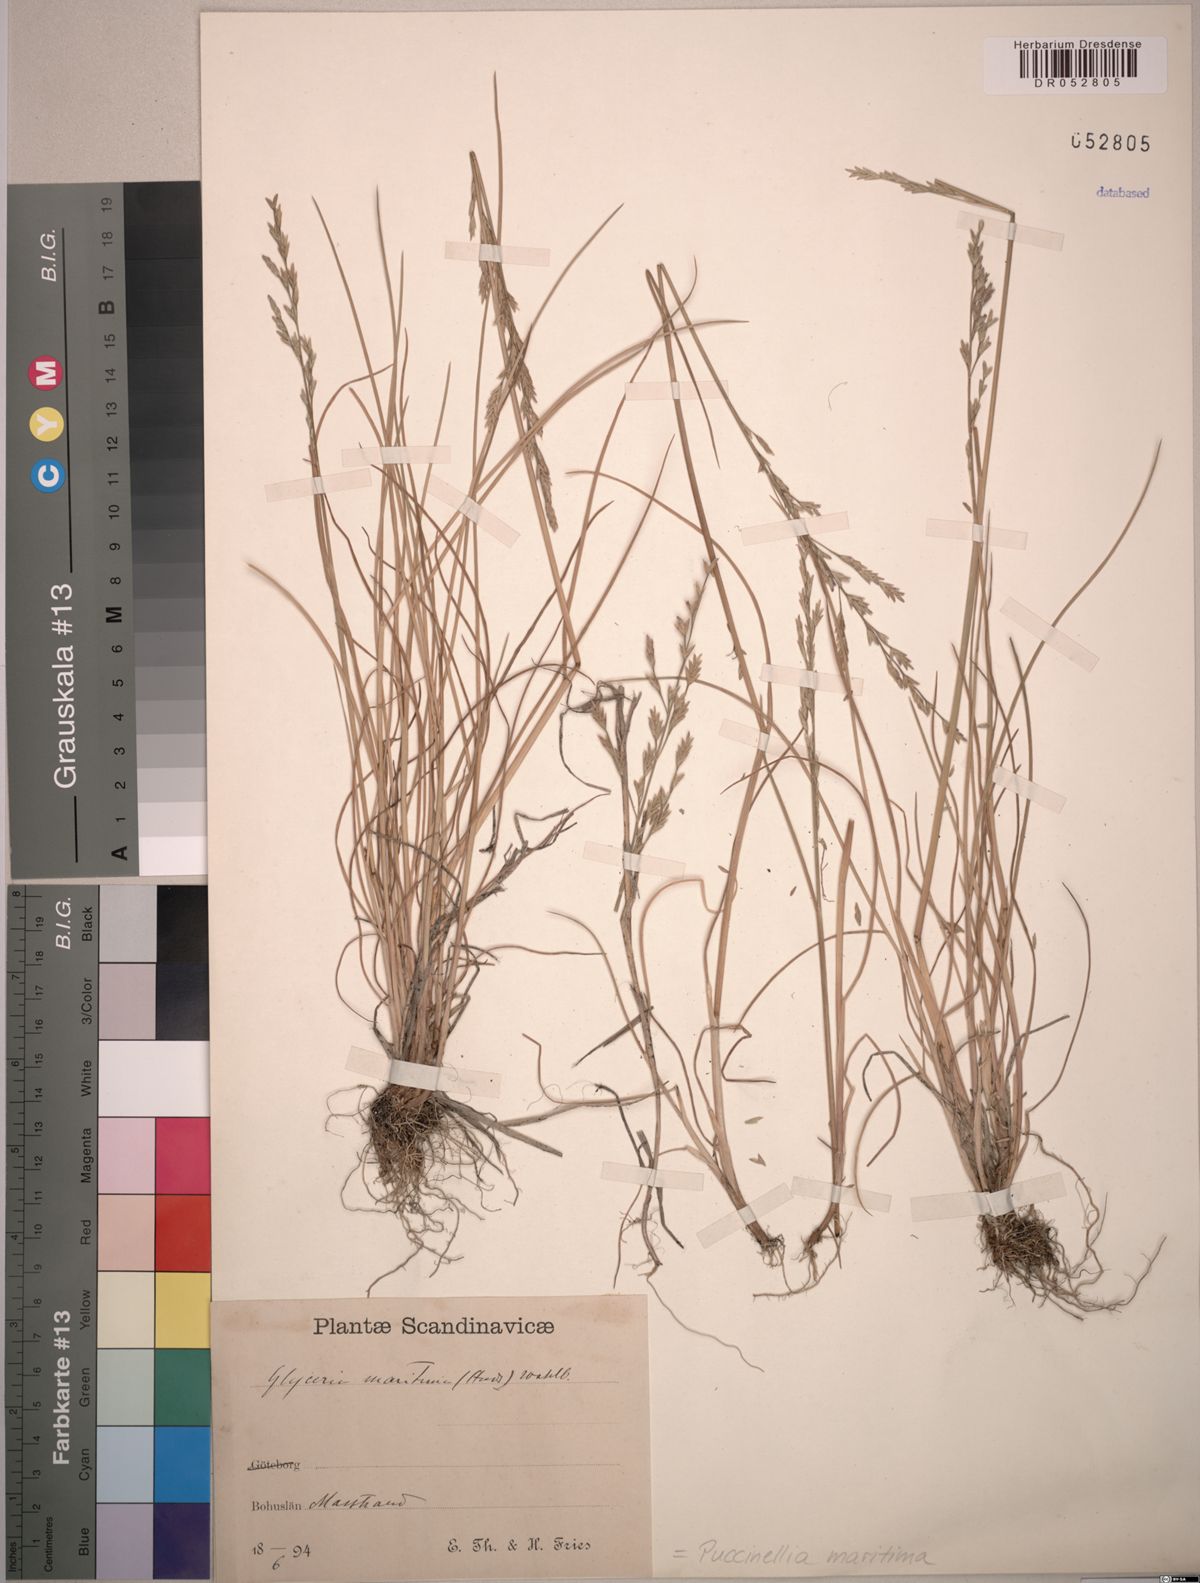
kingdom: Plantae
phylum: Tracheophyta
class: Liliopsida
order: Poales
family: Poaceae
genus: Puccinellia
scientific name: Puccinellia maritima
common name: Common saltmarsh grass
